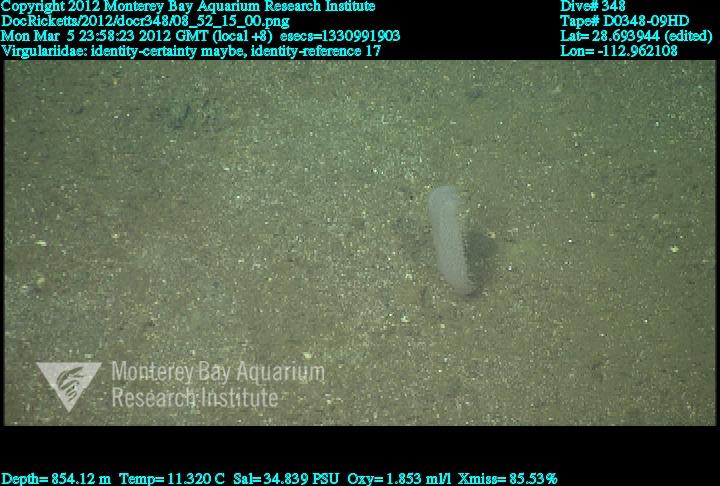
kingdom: Animalia
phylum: Cnidaria
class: Anthozoa
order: Scleralcyonacea
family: Virgulariidae
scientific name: Virgulariidae
